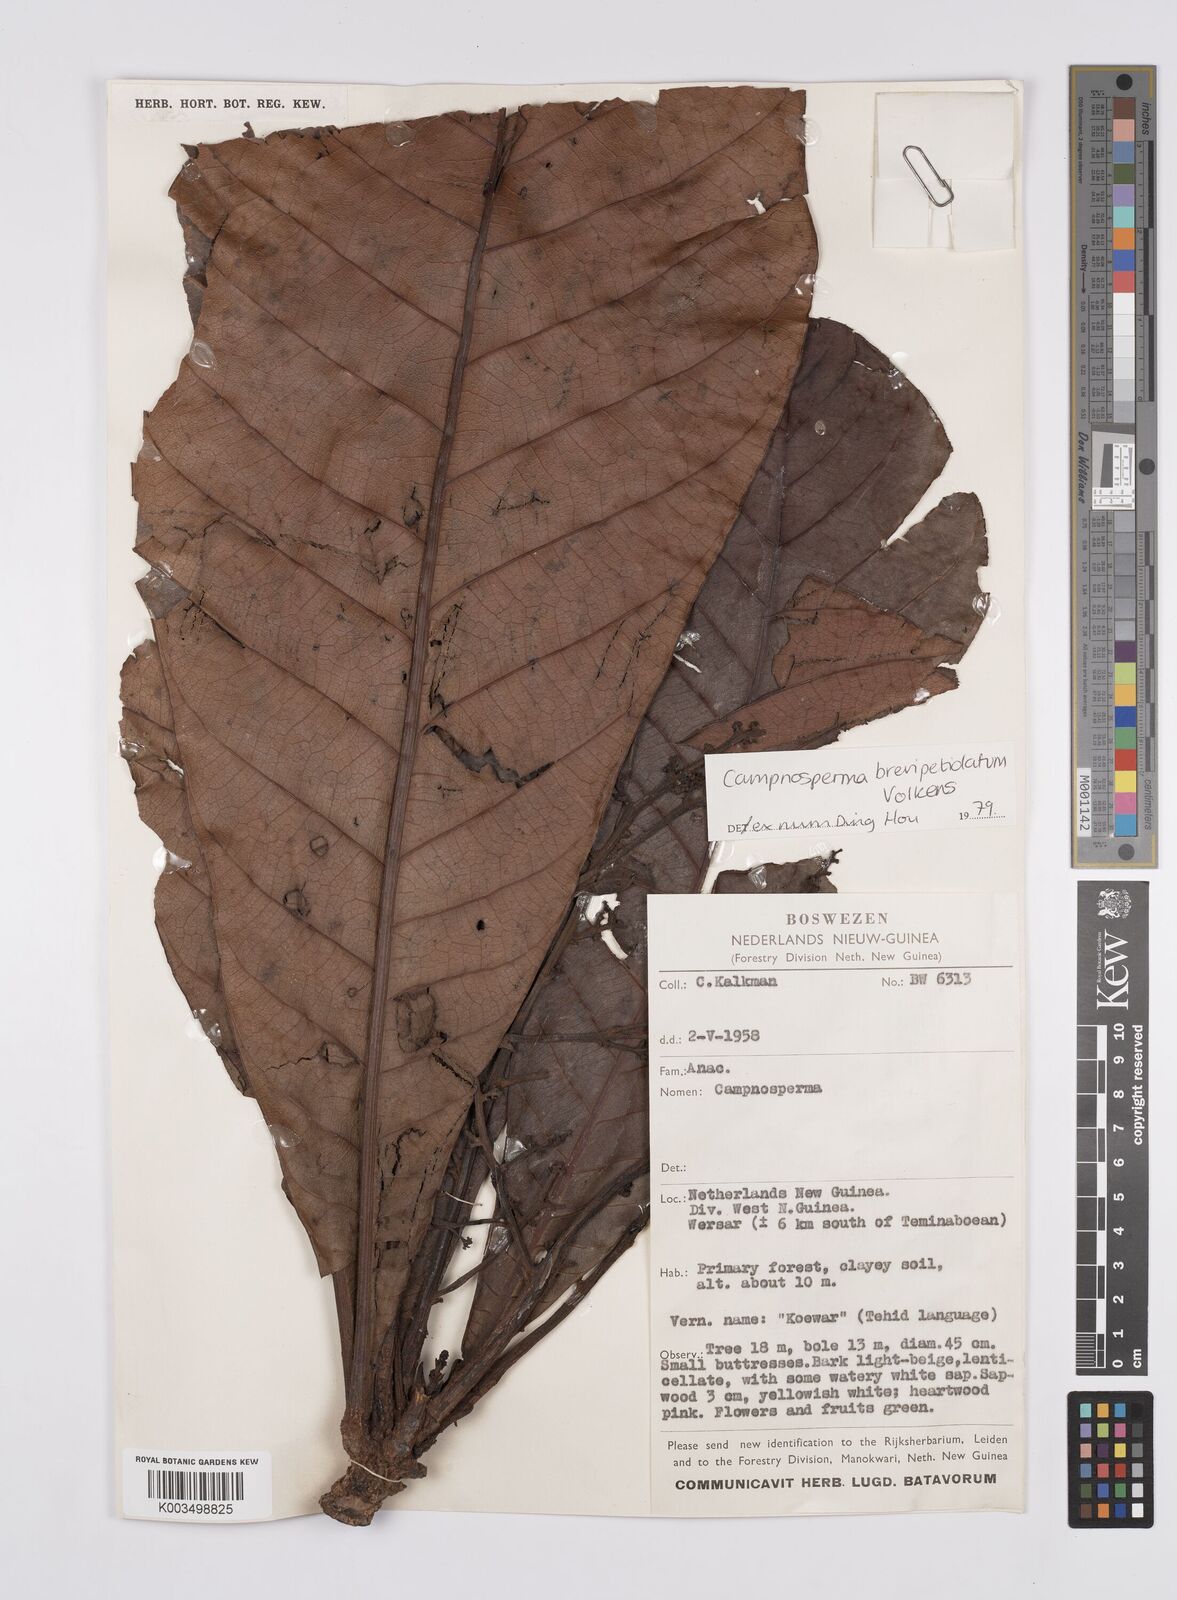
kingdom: Plantae
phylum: Tracheophyta
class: Magnoliopsida
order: Sapindales
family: Anacardiaceae
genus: Campnosperma
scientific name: Campnosperma brevipetiolatum
